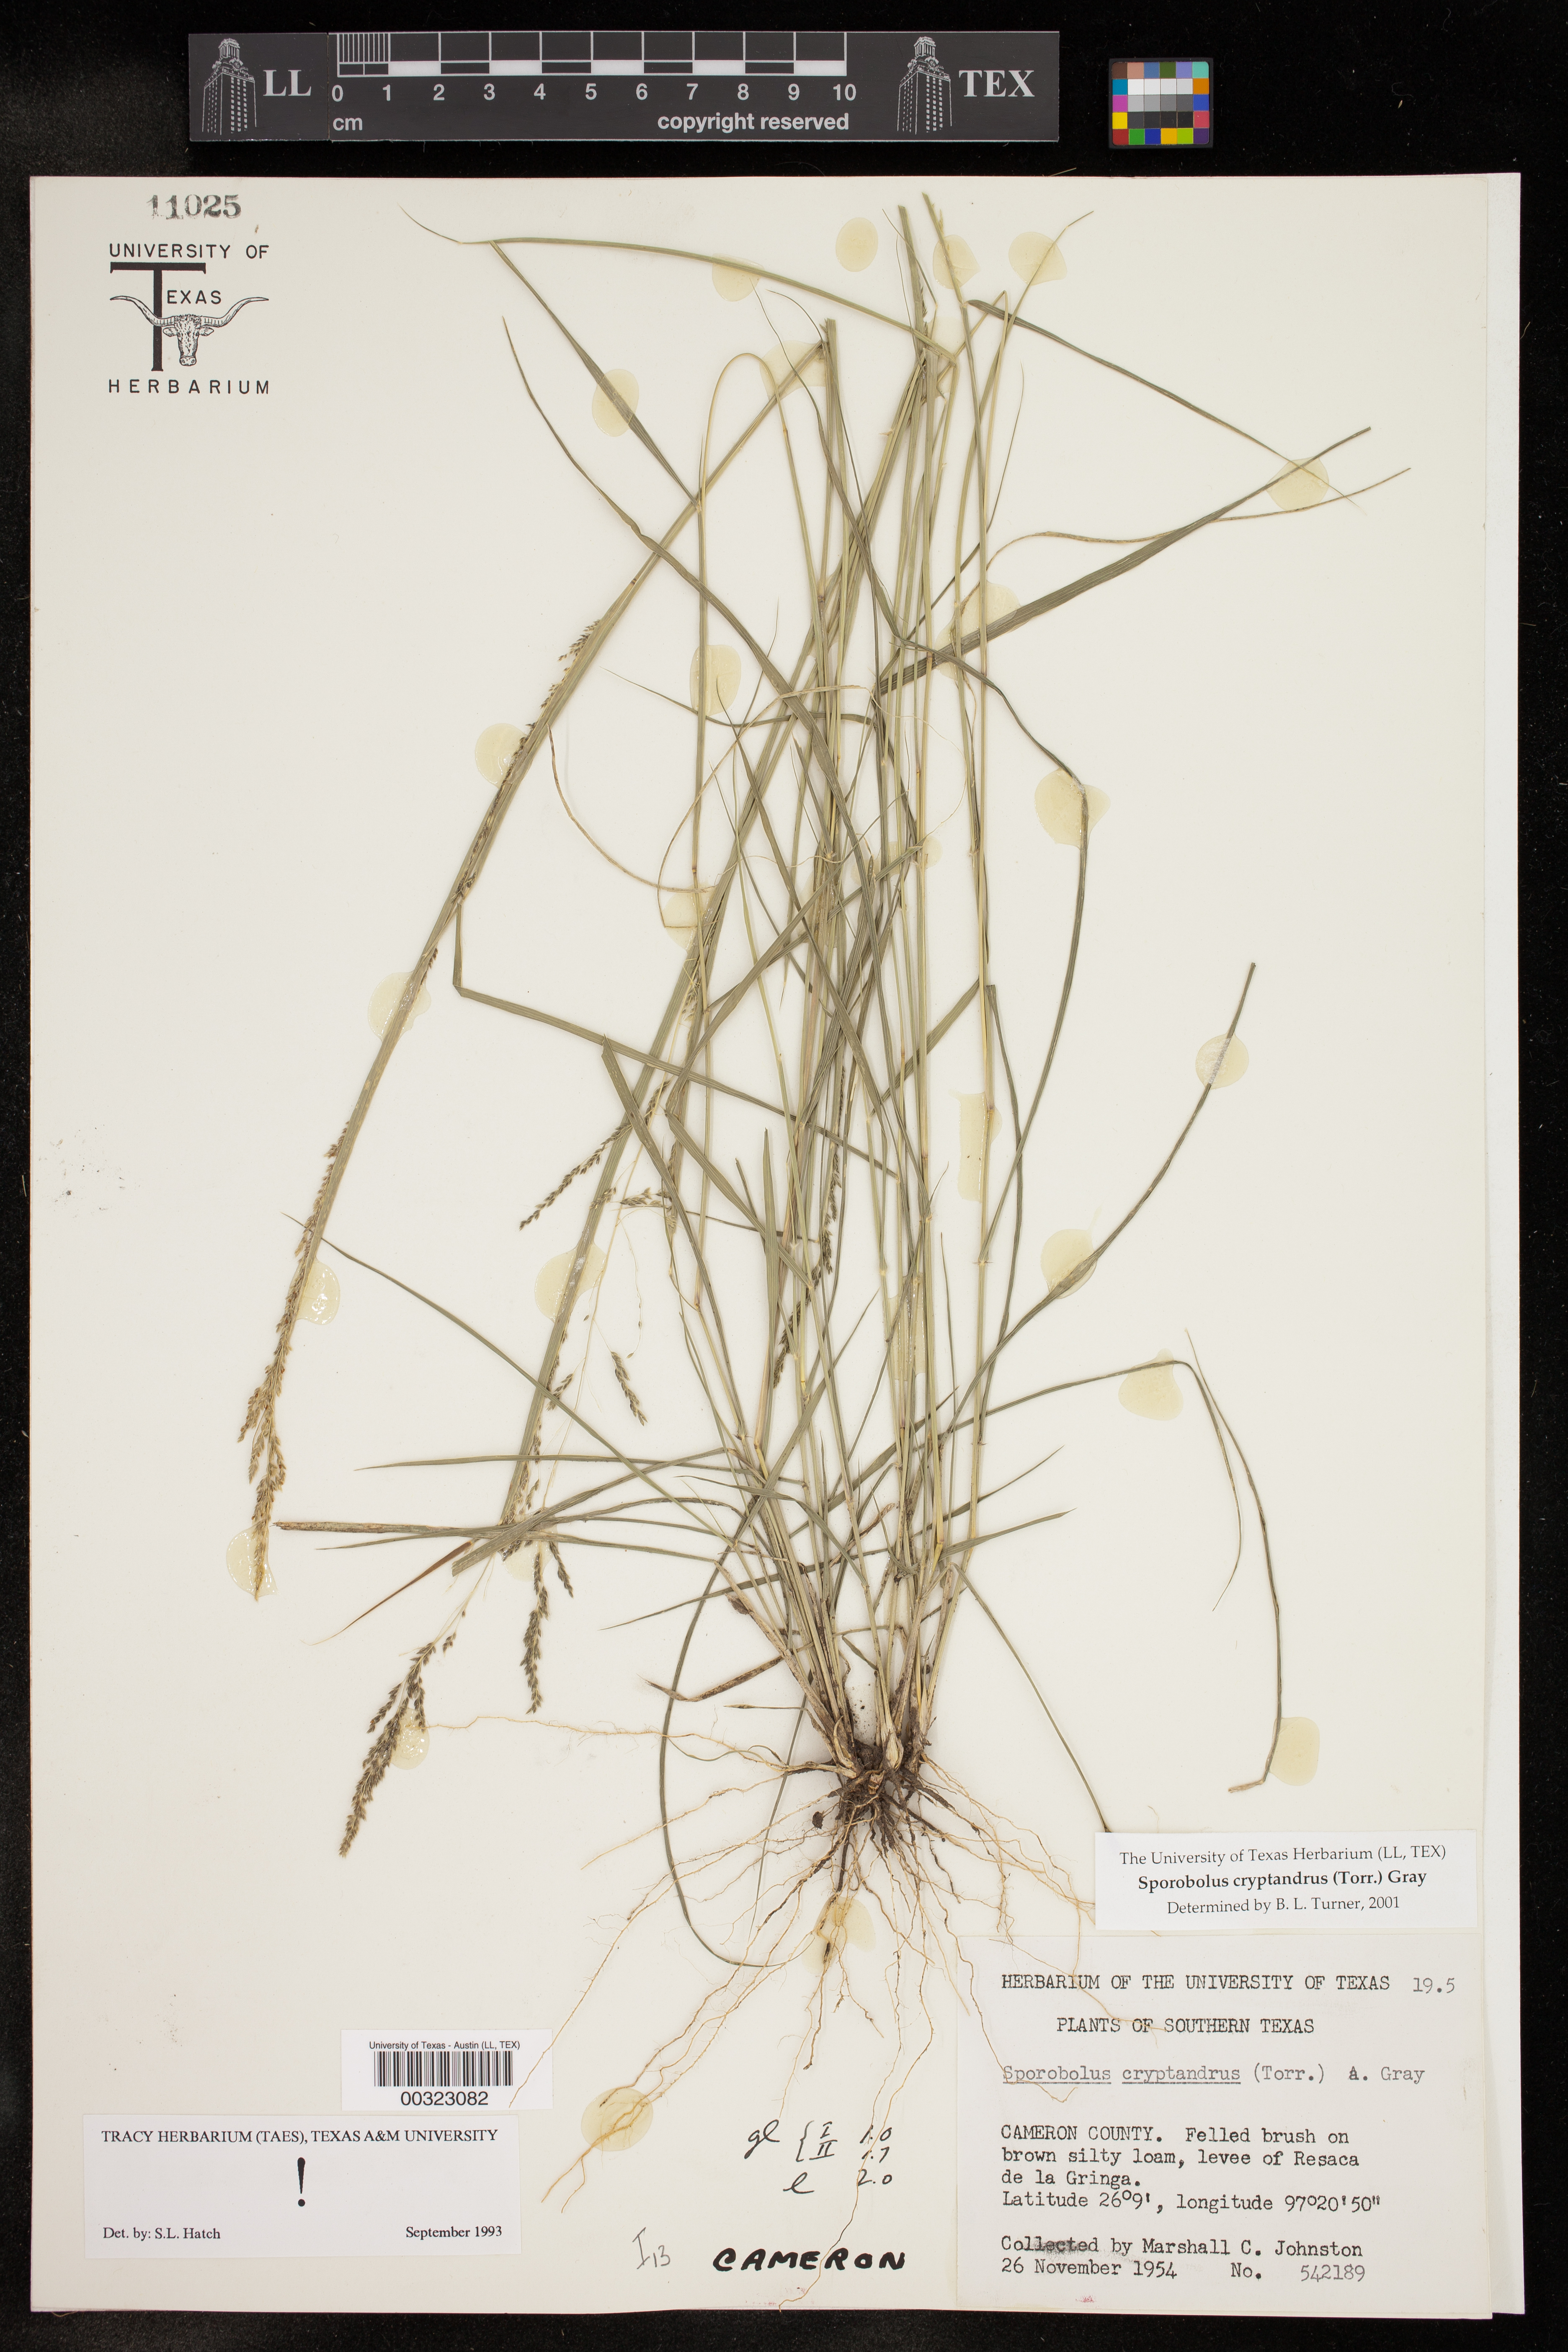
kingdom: Plantae
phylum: Tracheophyta
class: Liliopsida
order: Poales
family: Poaceae
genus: Sporobolus
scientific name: Sporobolus cryptandrus
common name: Sand dropseed
